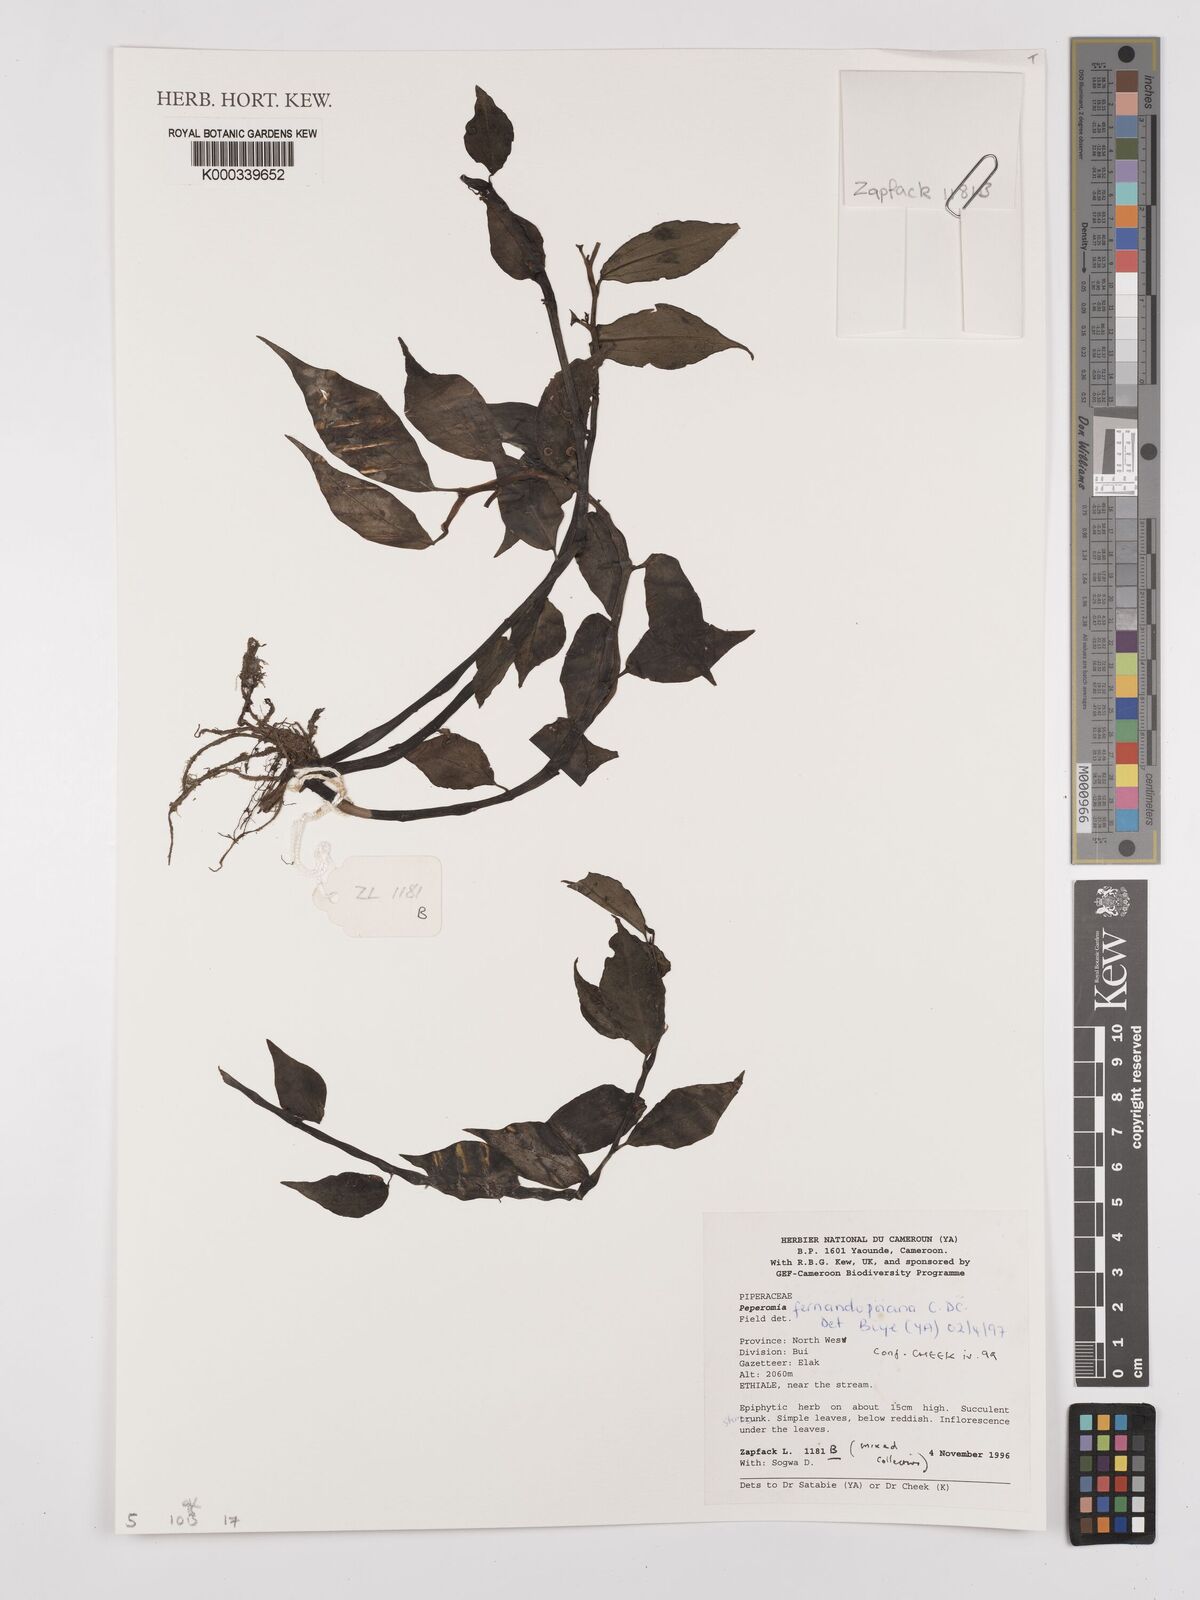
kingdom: Plantae
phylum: Tracheophyta
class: Magnoliopsida
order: Piperales
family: Piperaceae
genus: Peperomia
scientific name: Peperomia fernandopoiana
